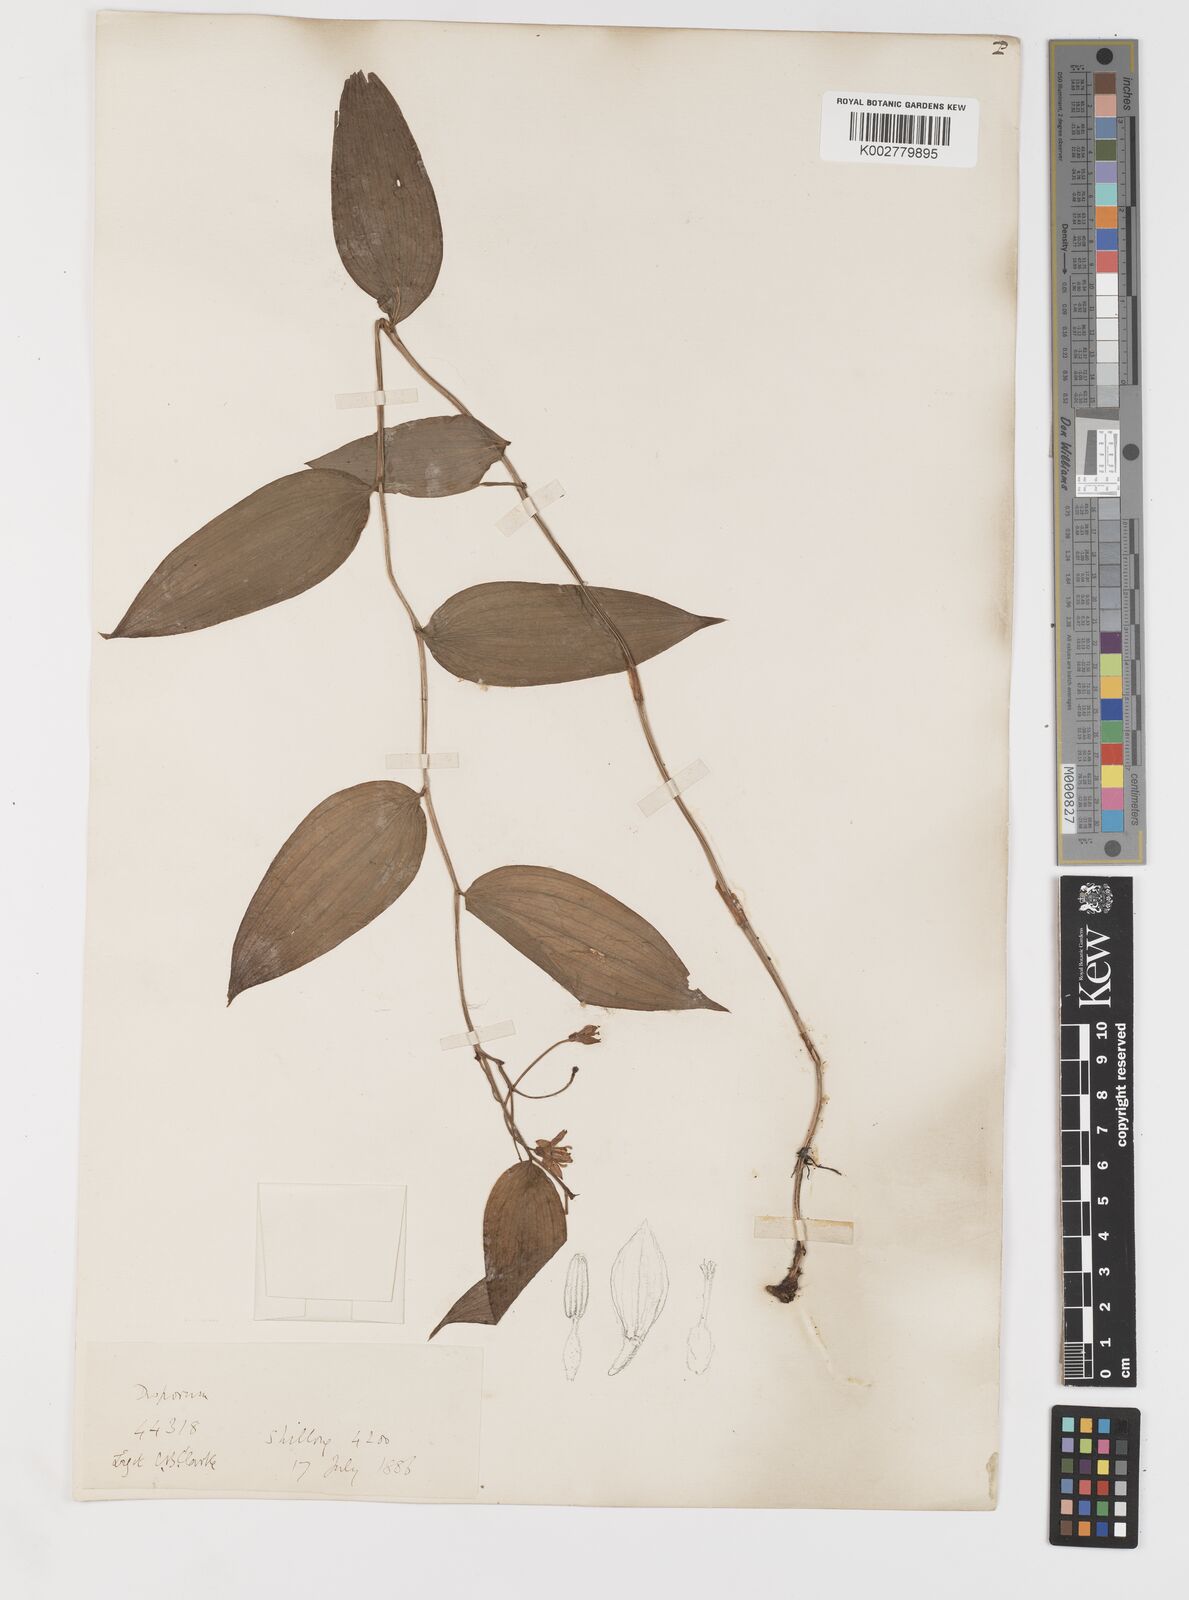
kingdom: Plantae
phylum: Tracheophyta
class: Liliopsida
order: Liliales
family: Colchicaceae
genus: Disporum
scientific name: Disporum
